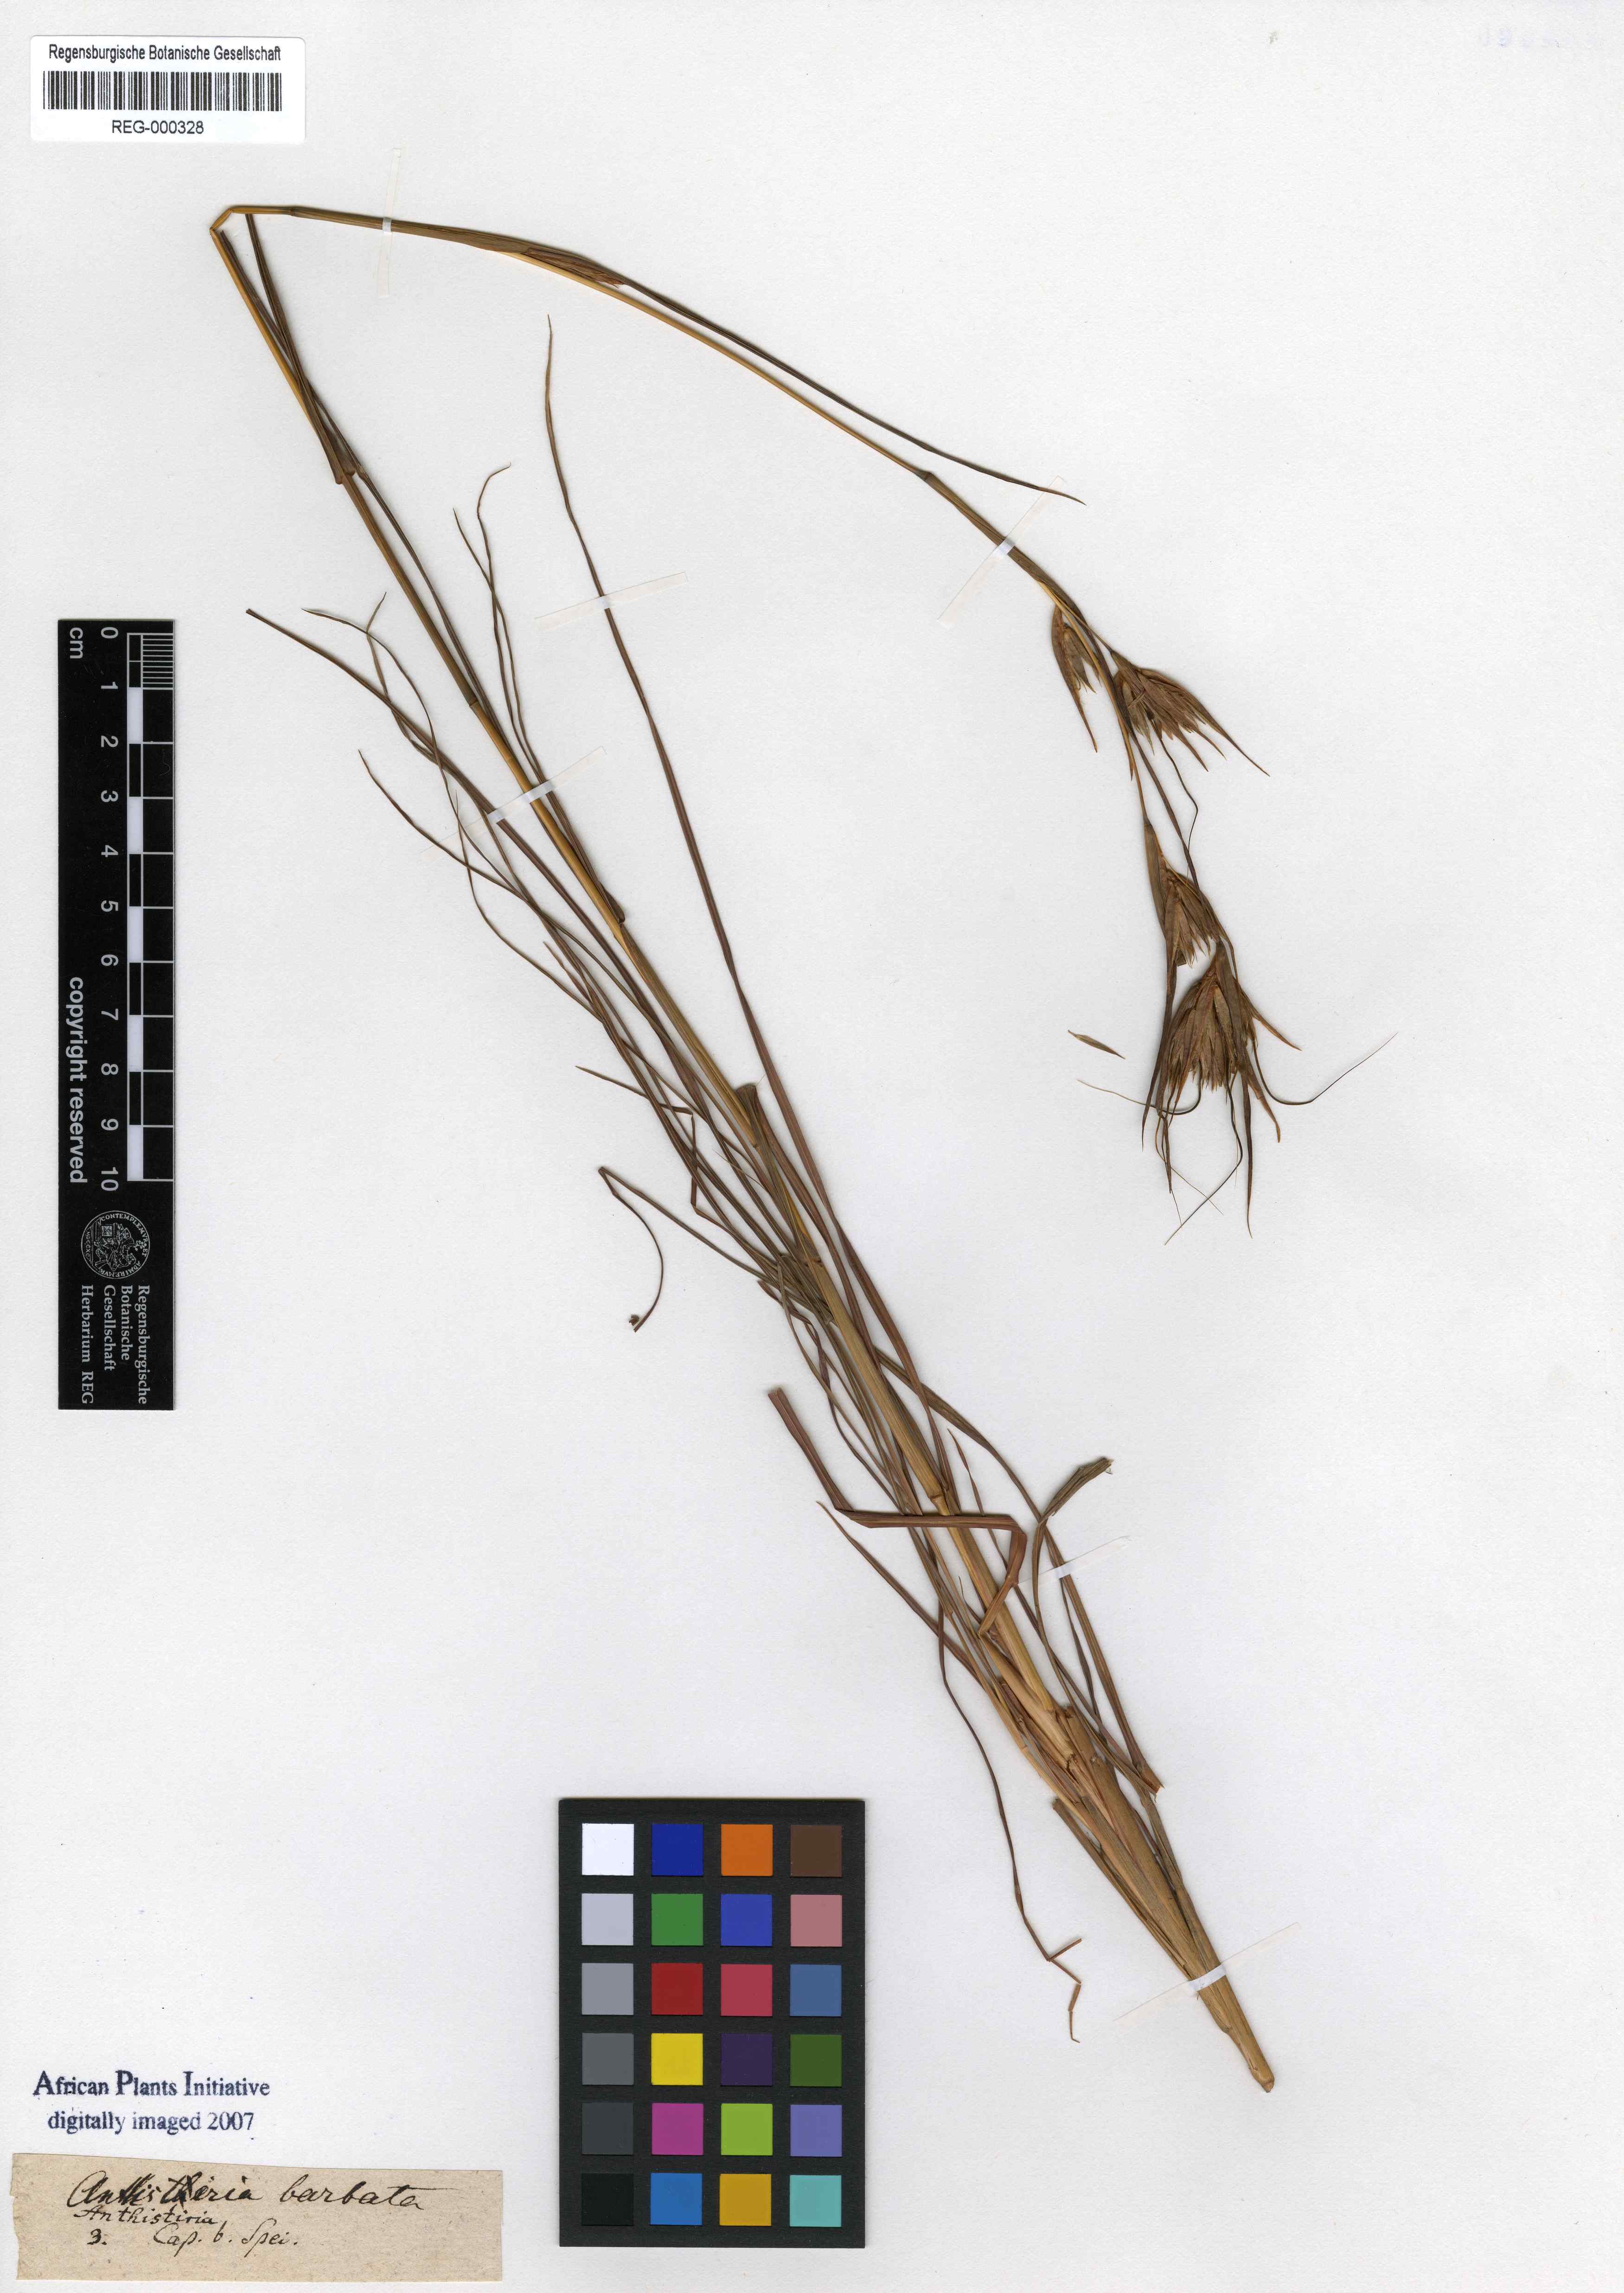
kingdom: Plantae
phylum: Tracheophyta
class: Liliopsida
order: Poales
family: Poaceae
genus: Themeda
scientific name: Themeda triandra
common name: Kangaroo grass
